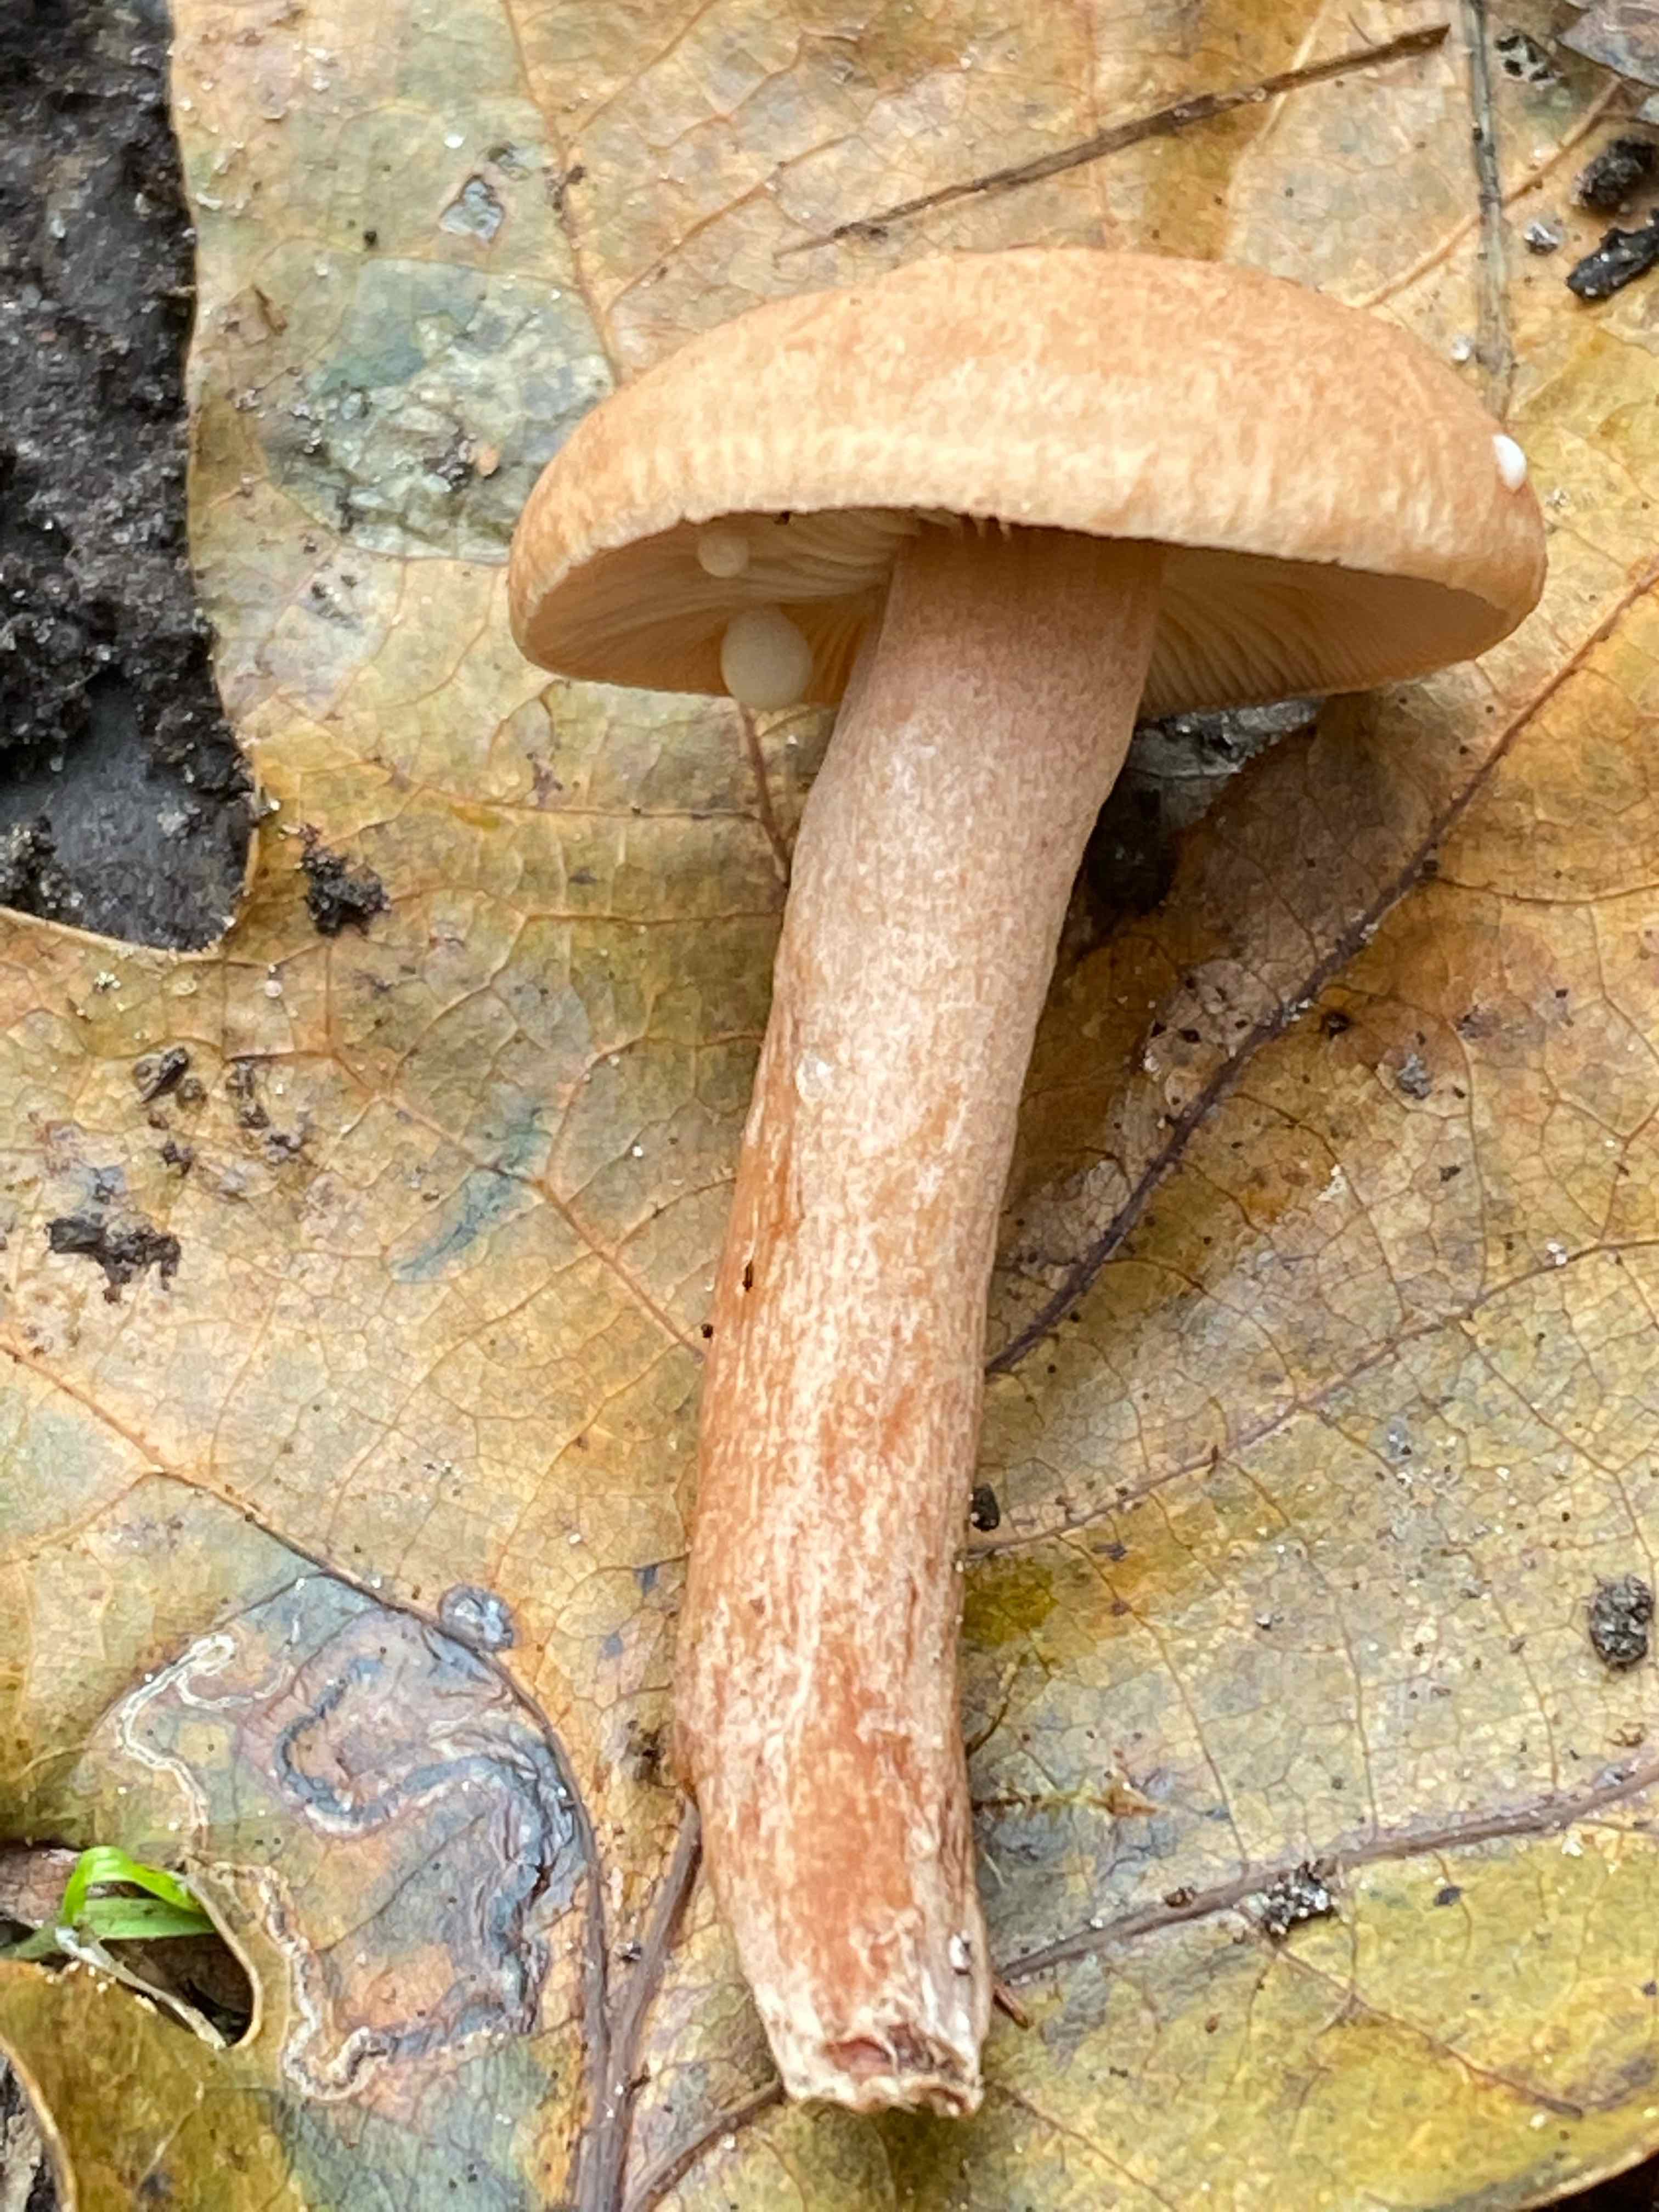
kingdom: Fungi
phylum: Basidiomycota
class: Agaricomycetes
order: Russulales
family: Russulaceae
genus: Lactarius
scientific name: Lactarius quietus
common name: ege-mælkehat
